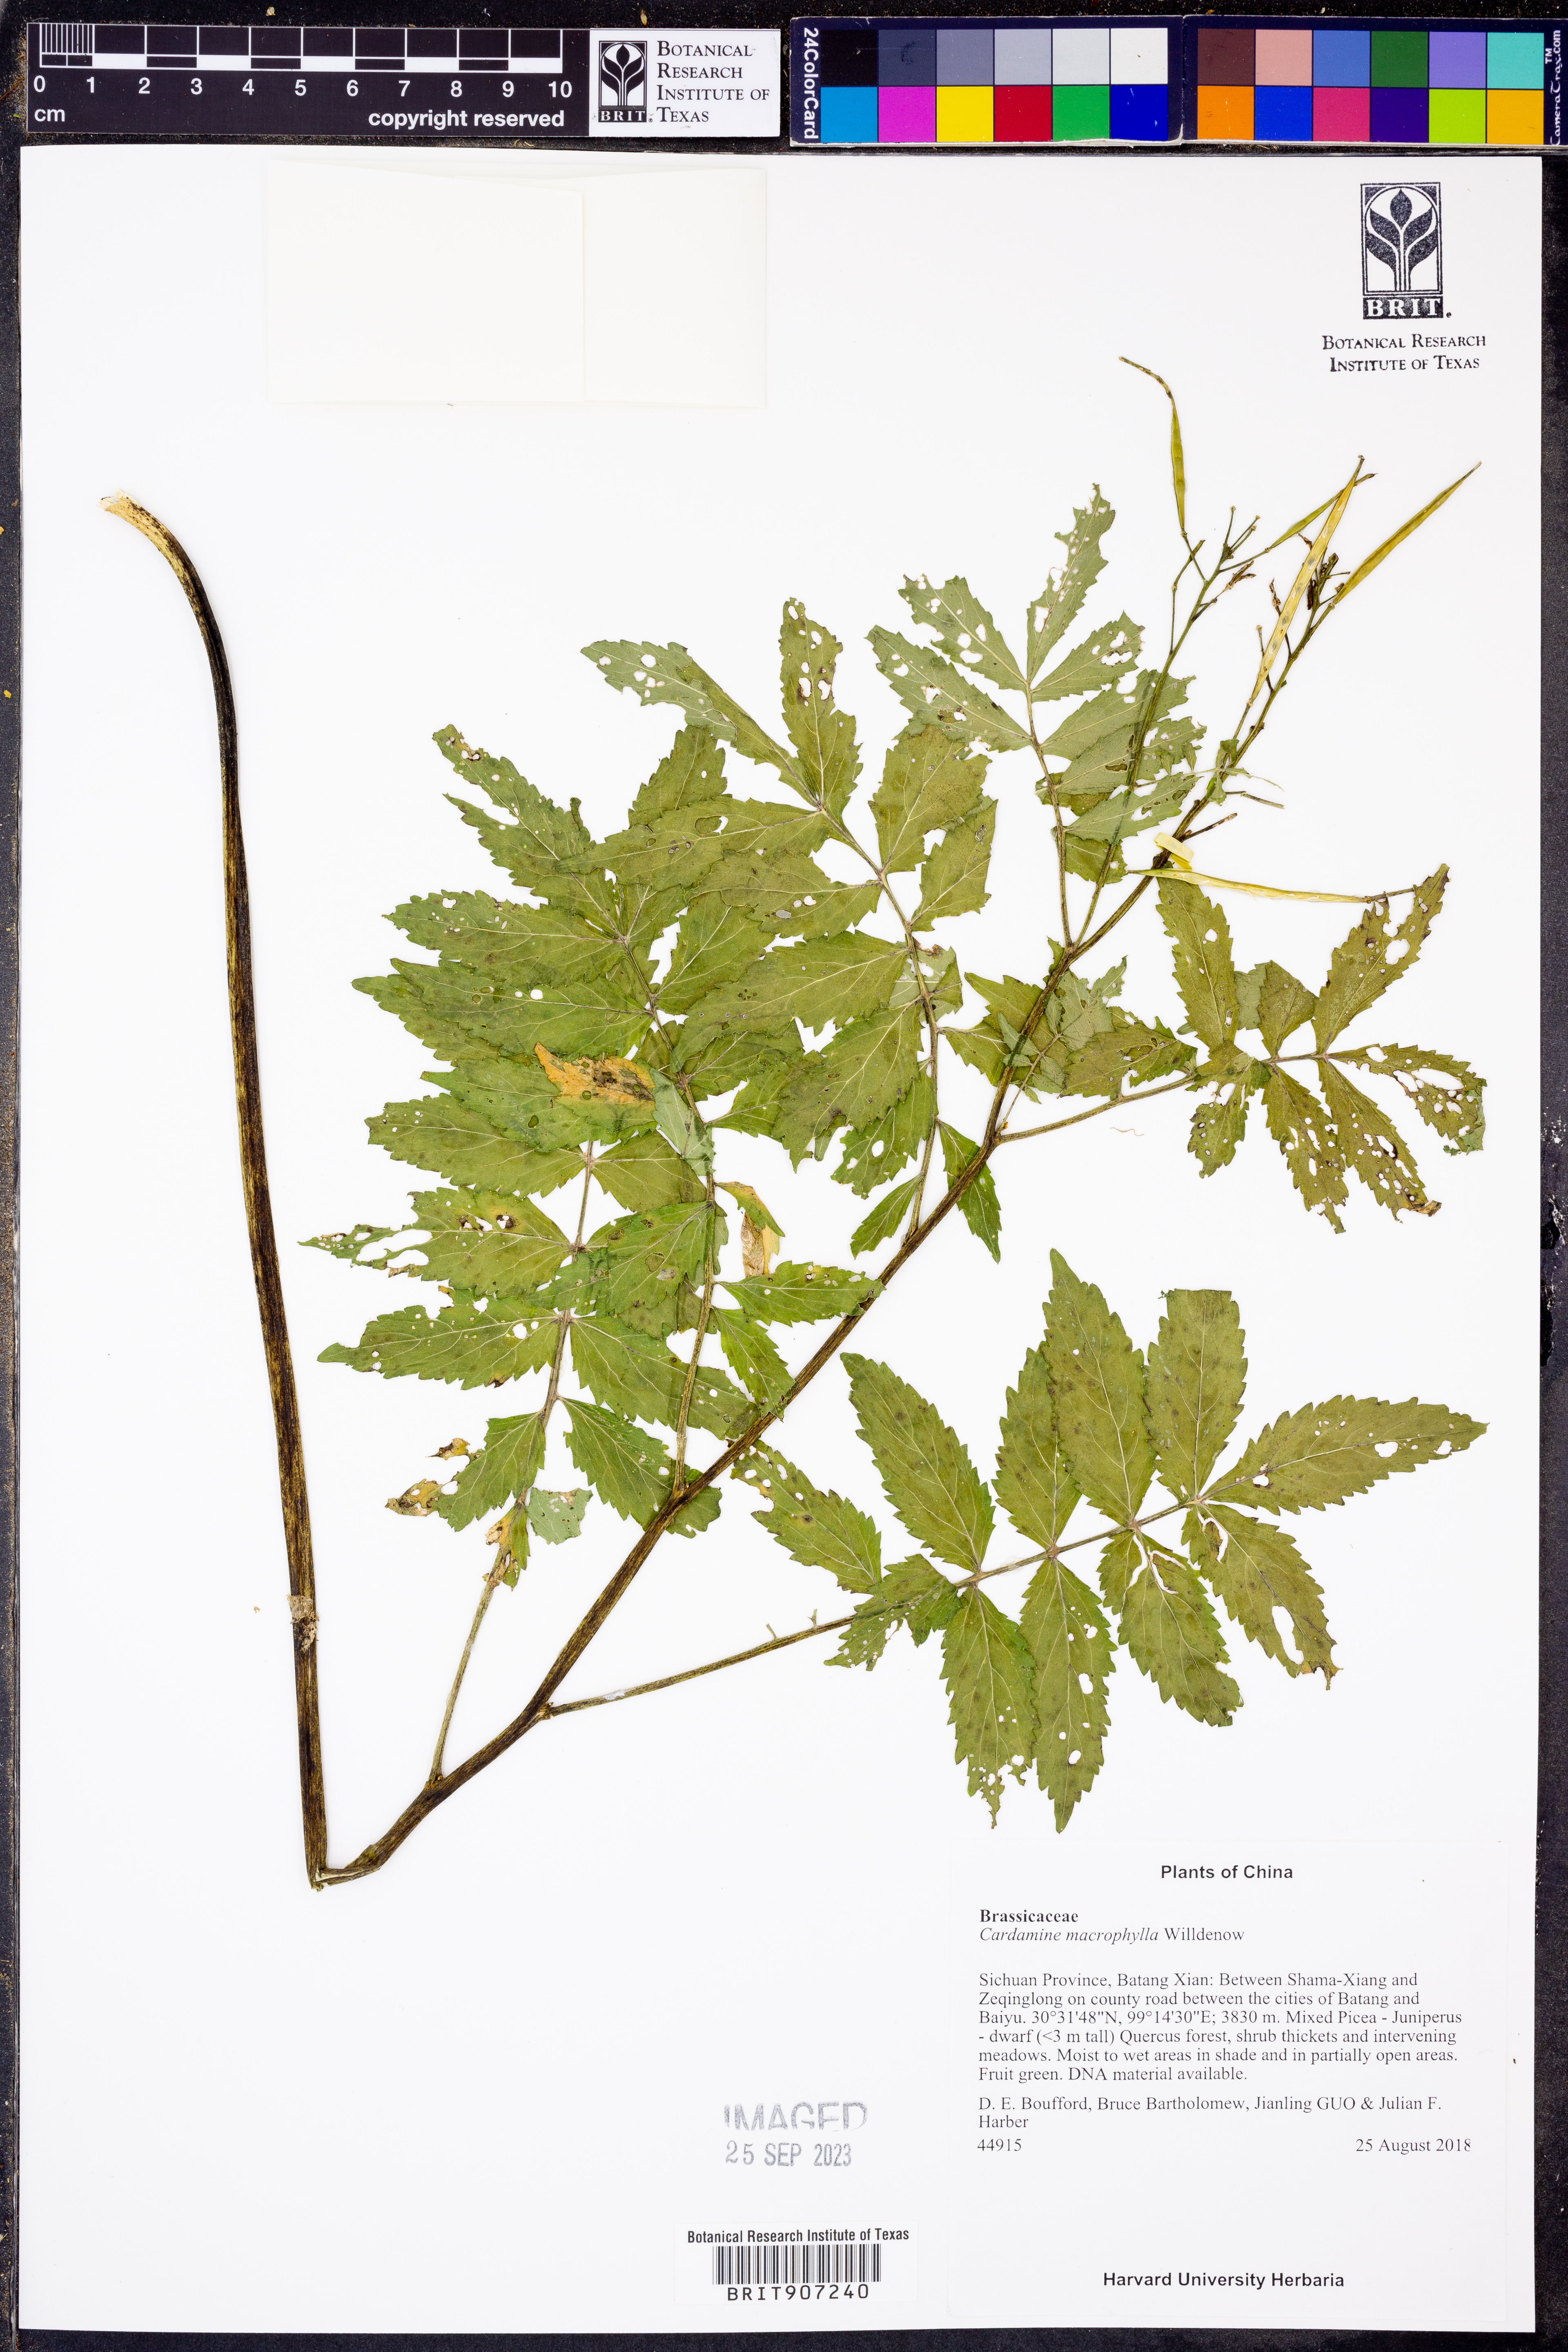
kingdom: Plantae
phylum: Tracheophyta
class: Magnoliopsida
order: Brassicales
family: Brassicaceae
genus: Cardamine
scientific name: Cardamine macrophylla
